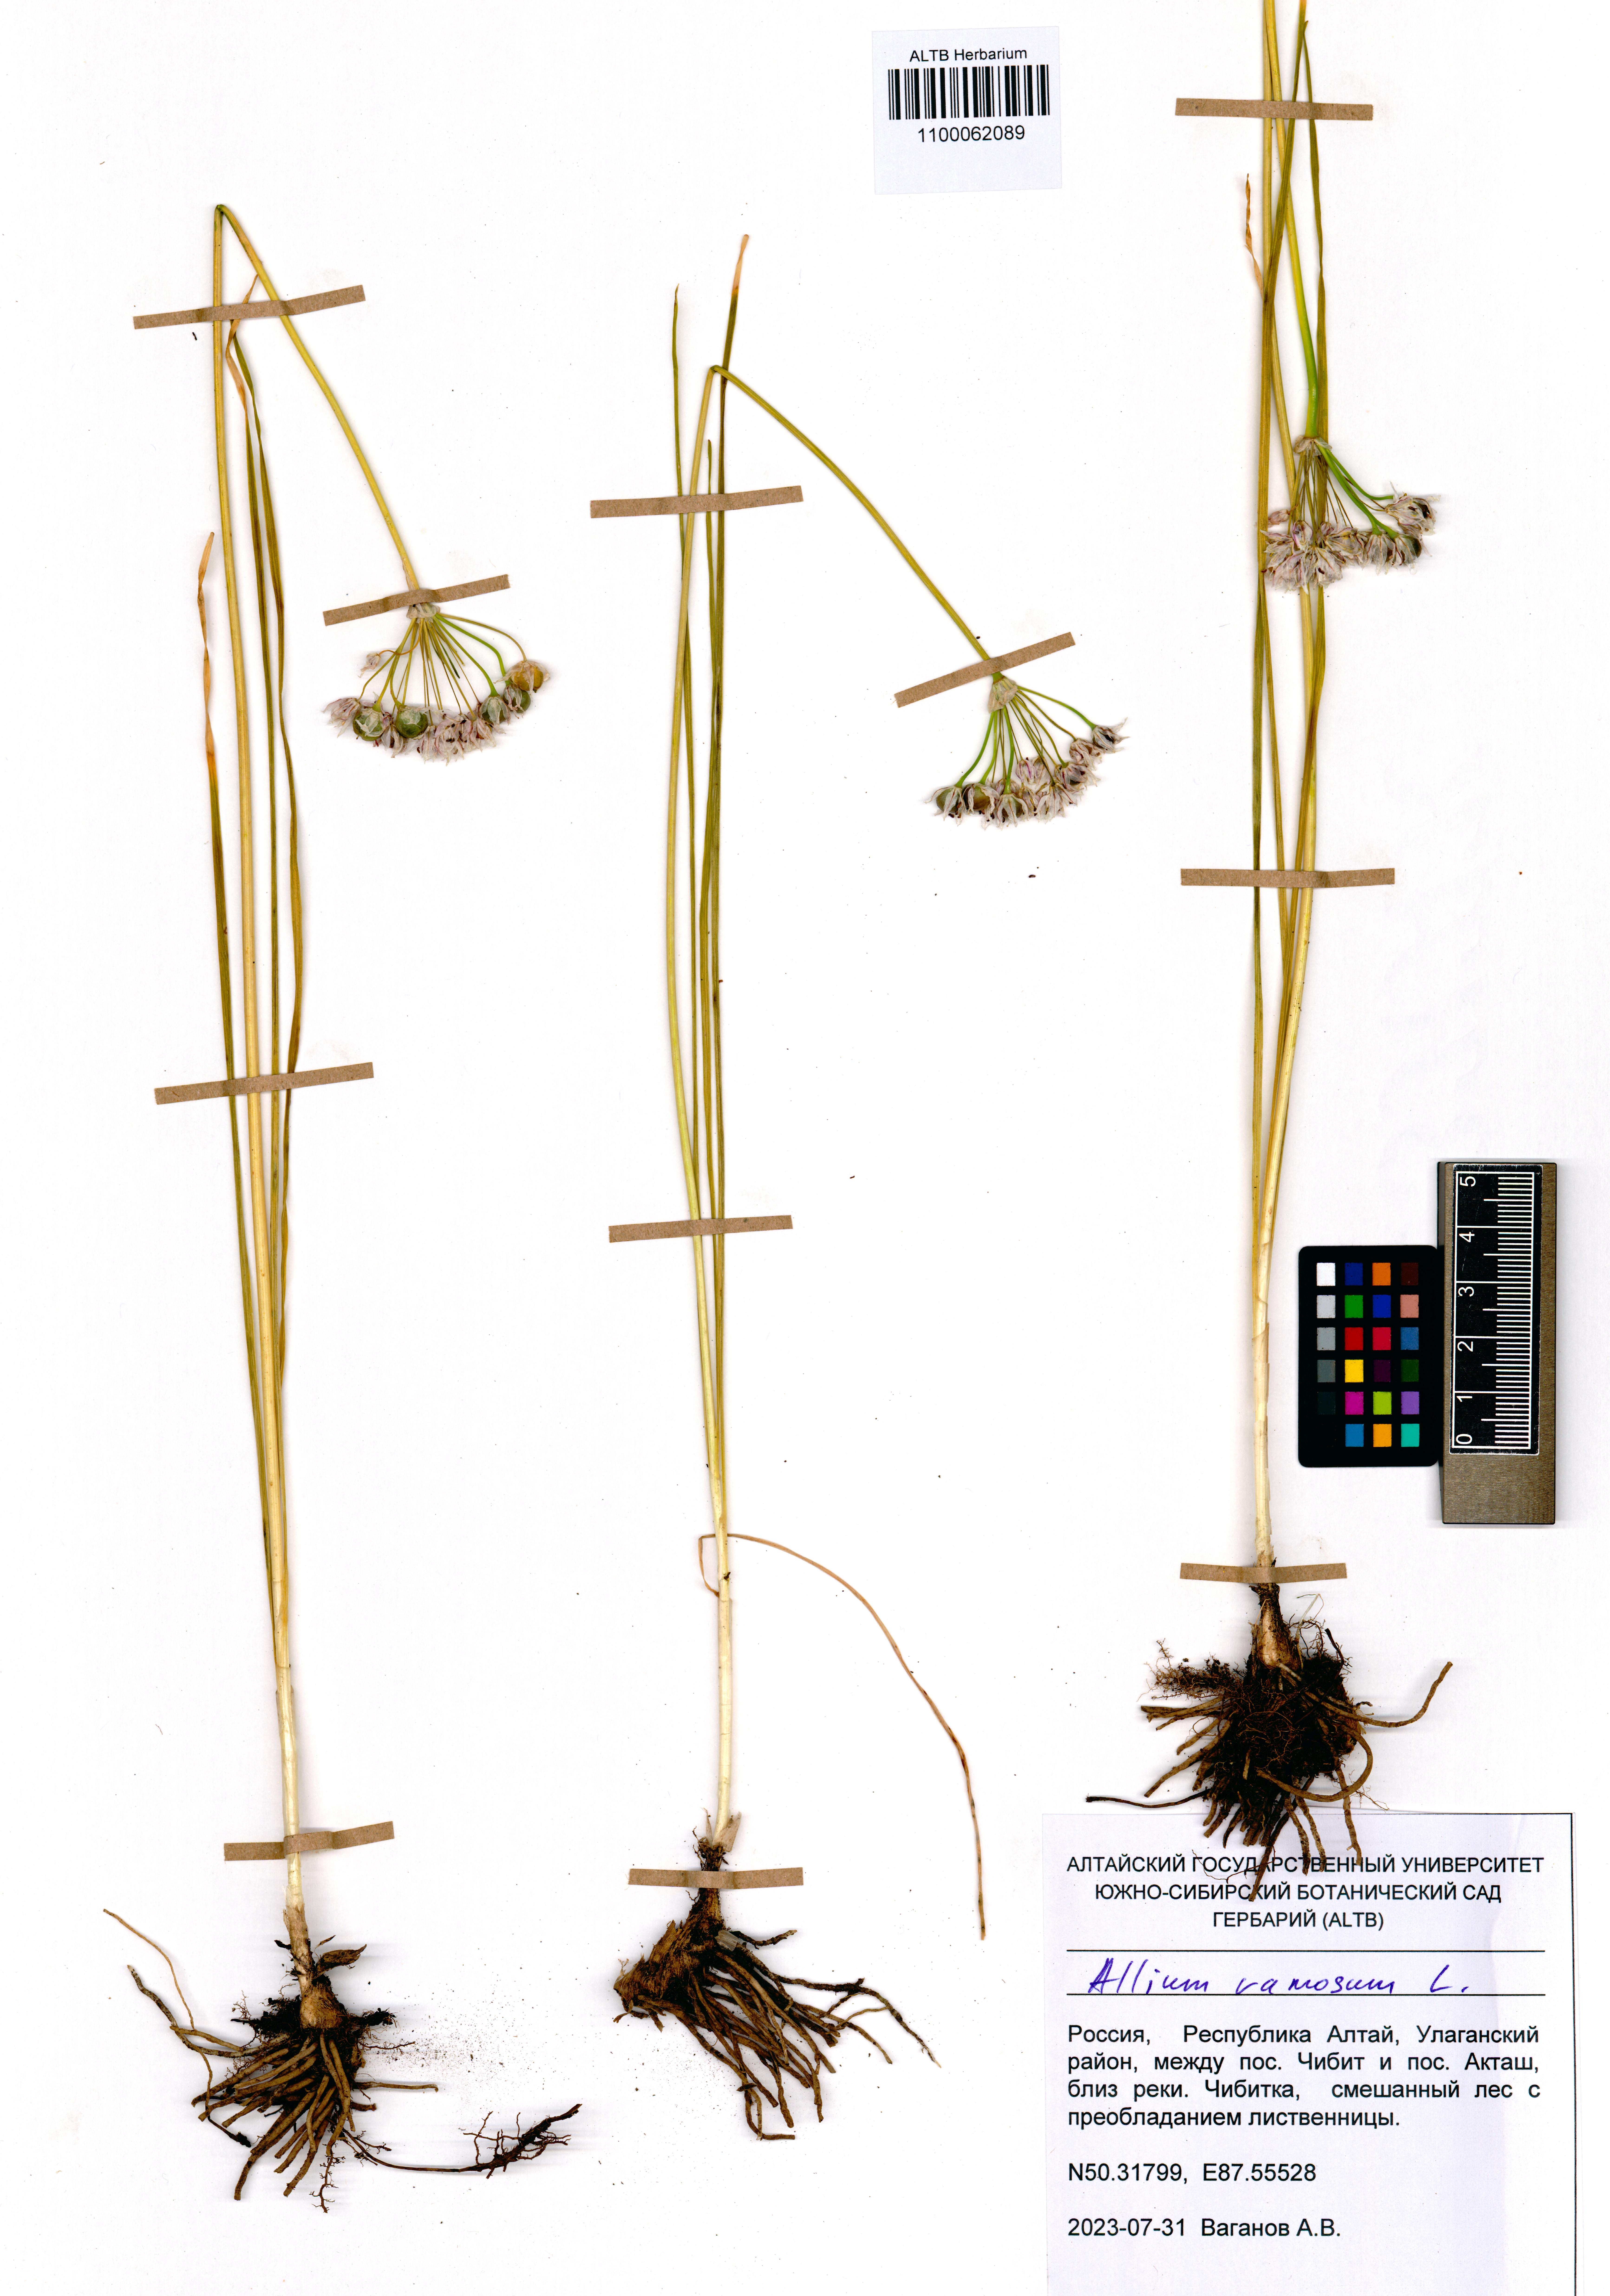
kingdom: Plantae
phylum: Tracheophyta
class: Liliopsida
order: Asparagales
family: Amaryllidaceae
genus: Allium
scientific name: Allium ramosum
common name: Fragrant garlic
